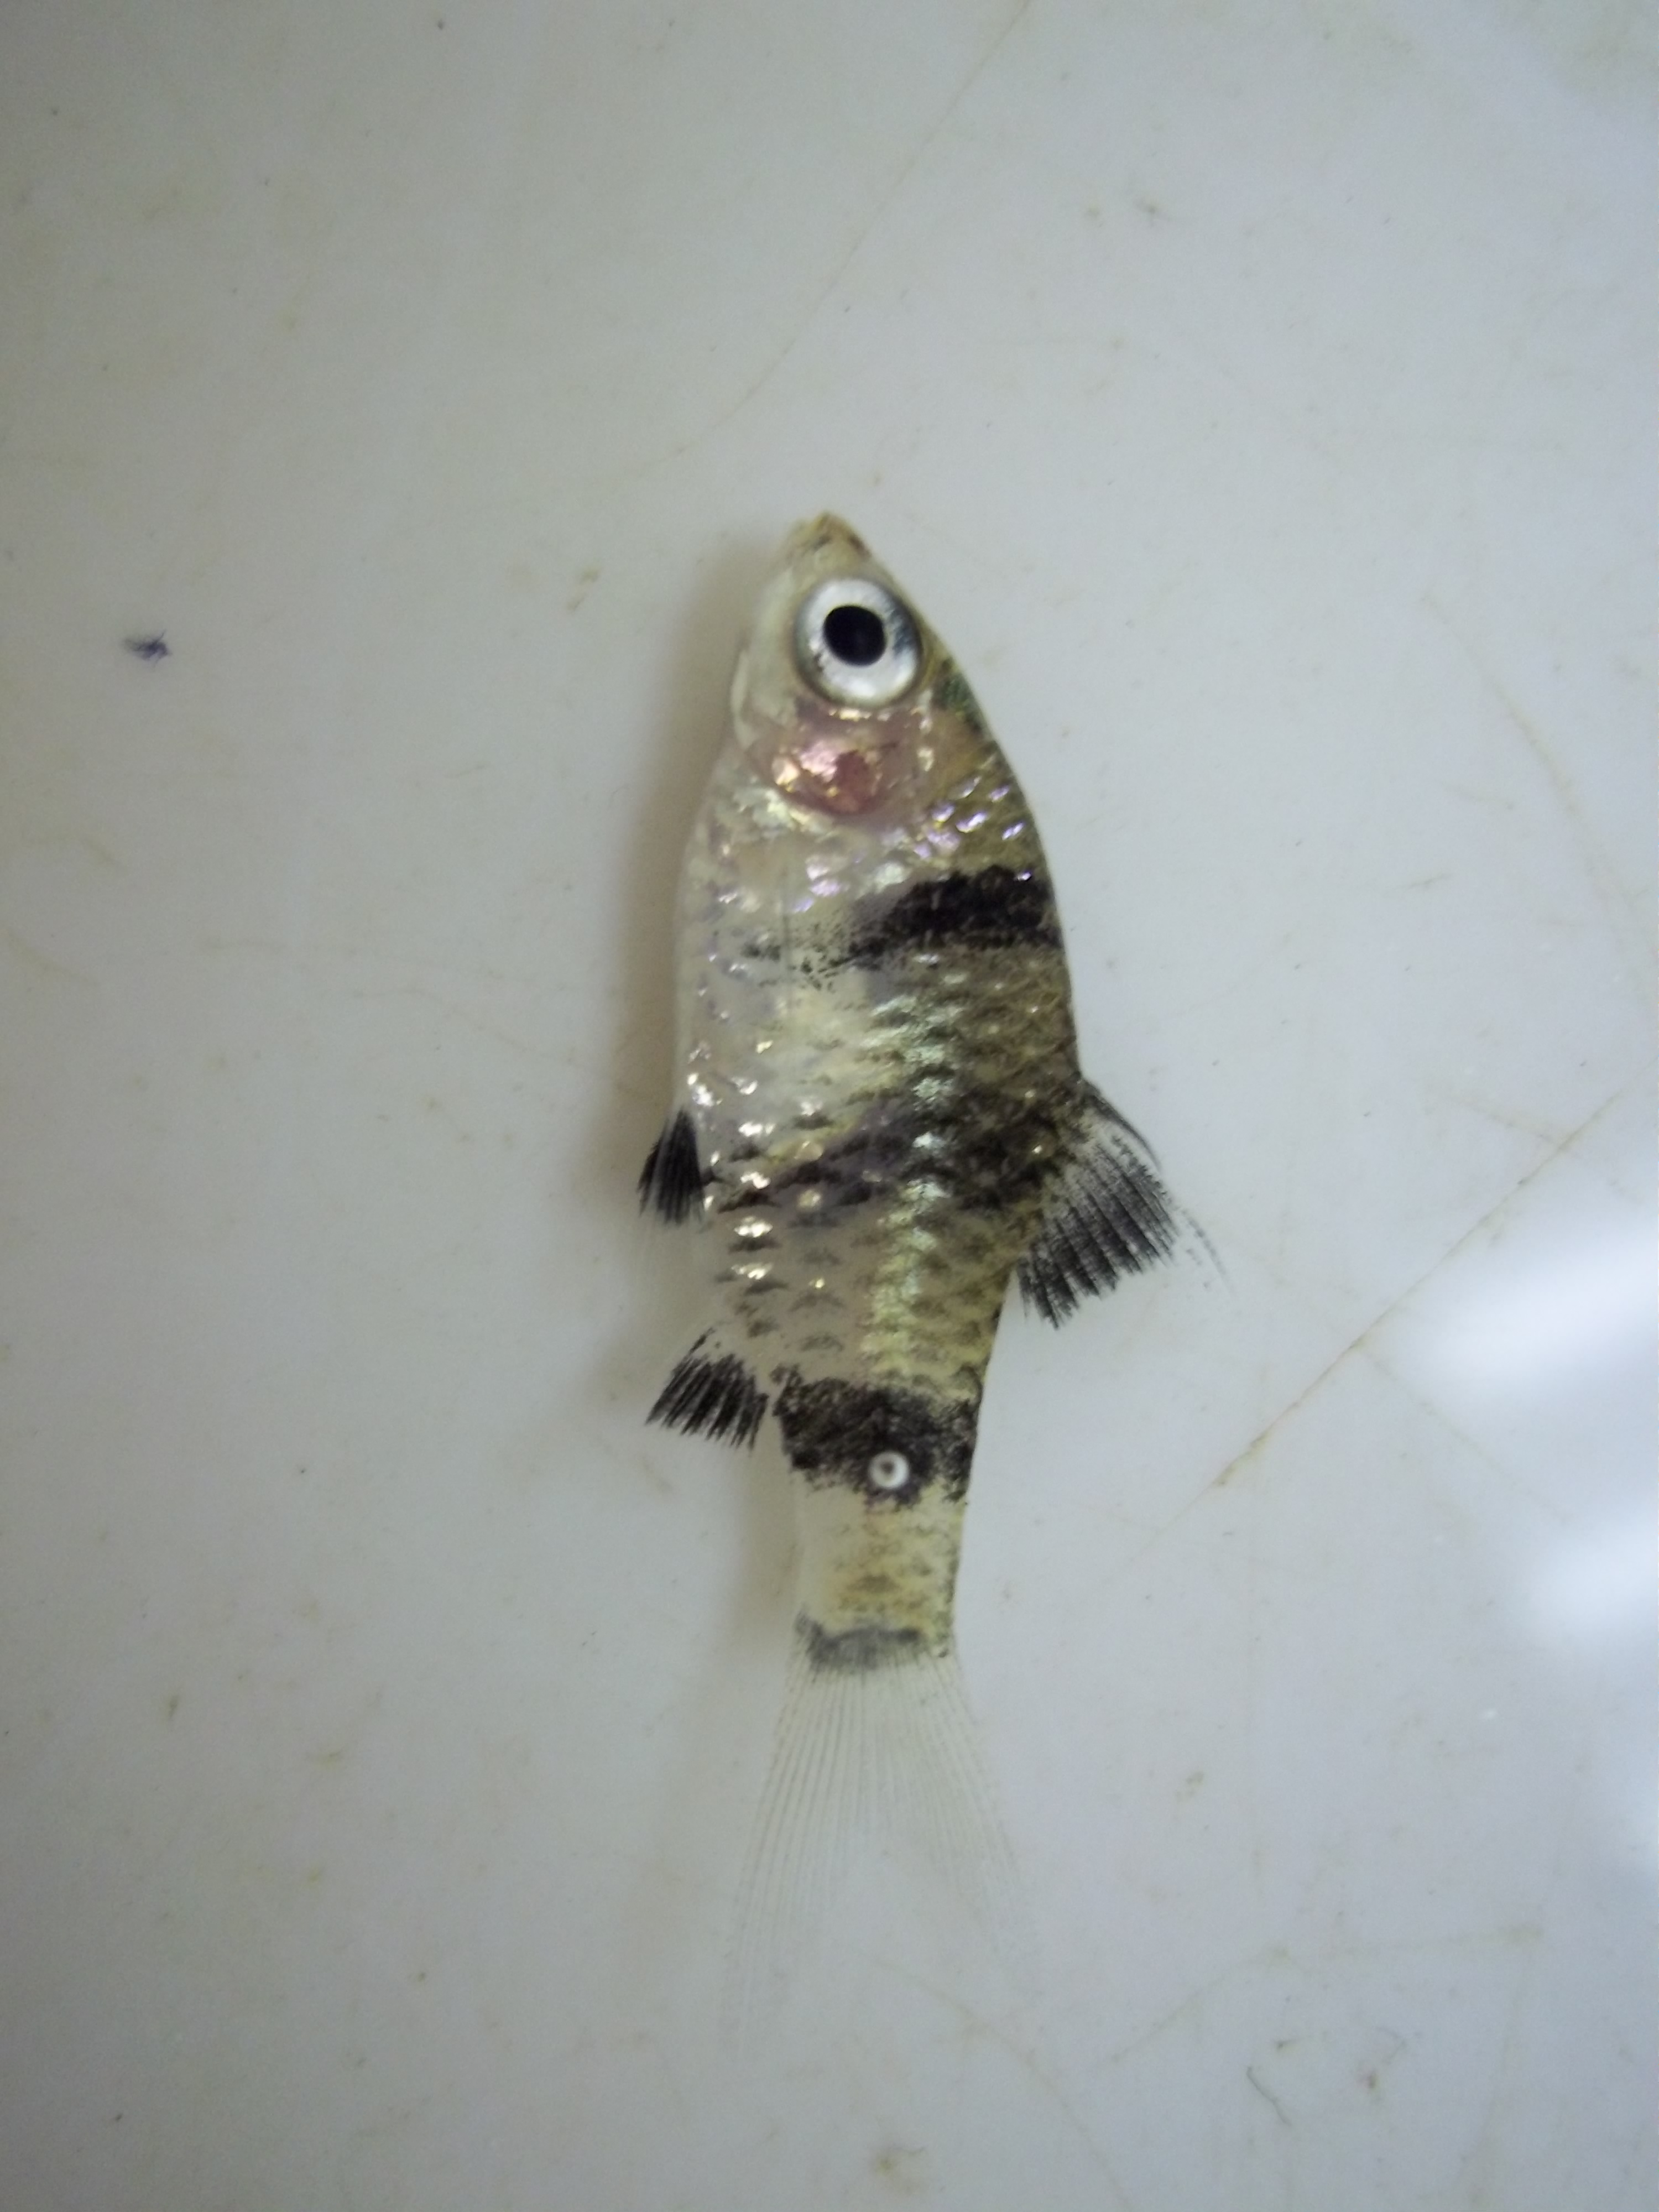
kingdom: Animalia
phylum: Chordata
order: Cypriniformes
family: Cyprinidae
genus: Pethia
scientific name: Pethia nigrofasciata
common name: Black ruby barb
